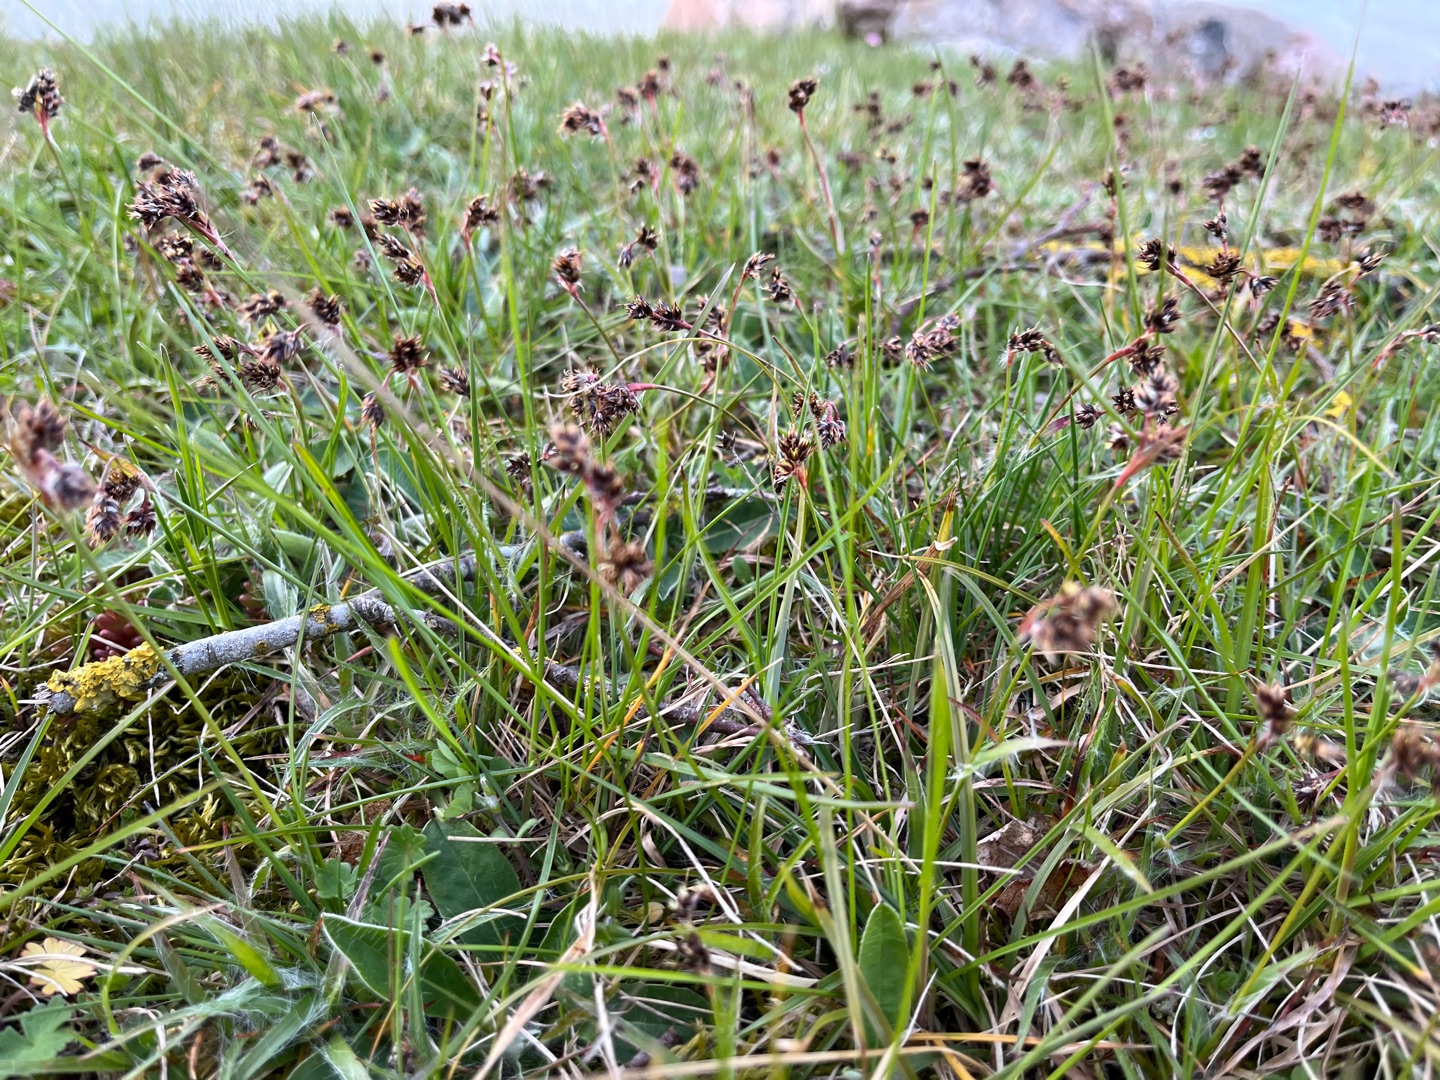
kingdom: Plantae
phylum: Tracheophyta
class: Liliopsida
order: Poales
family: Juncaceae
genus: Luzula
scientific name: Luzula campestris
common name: Mark-frytle
